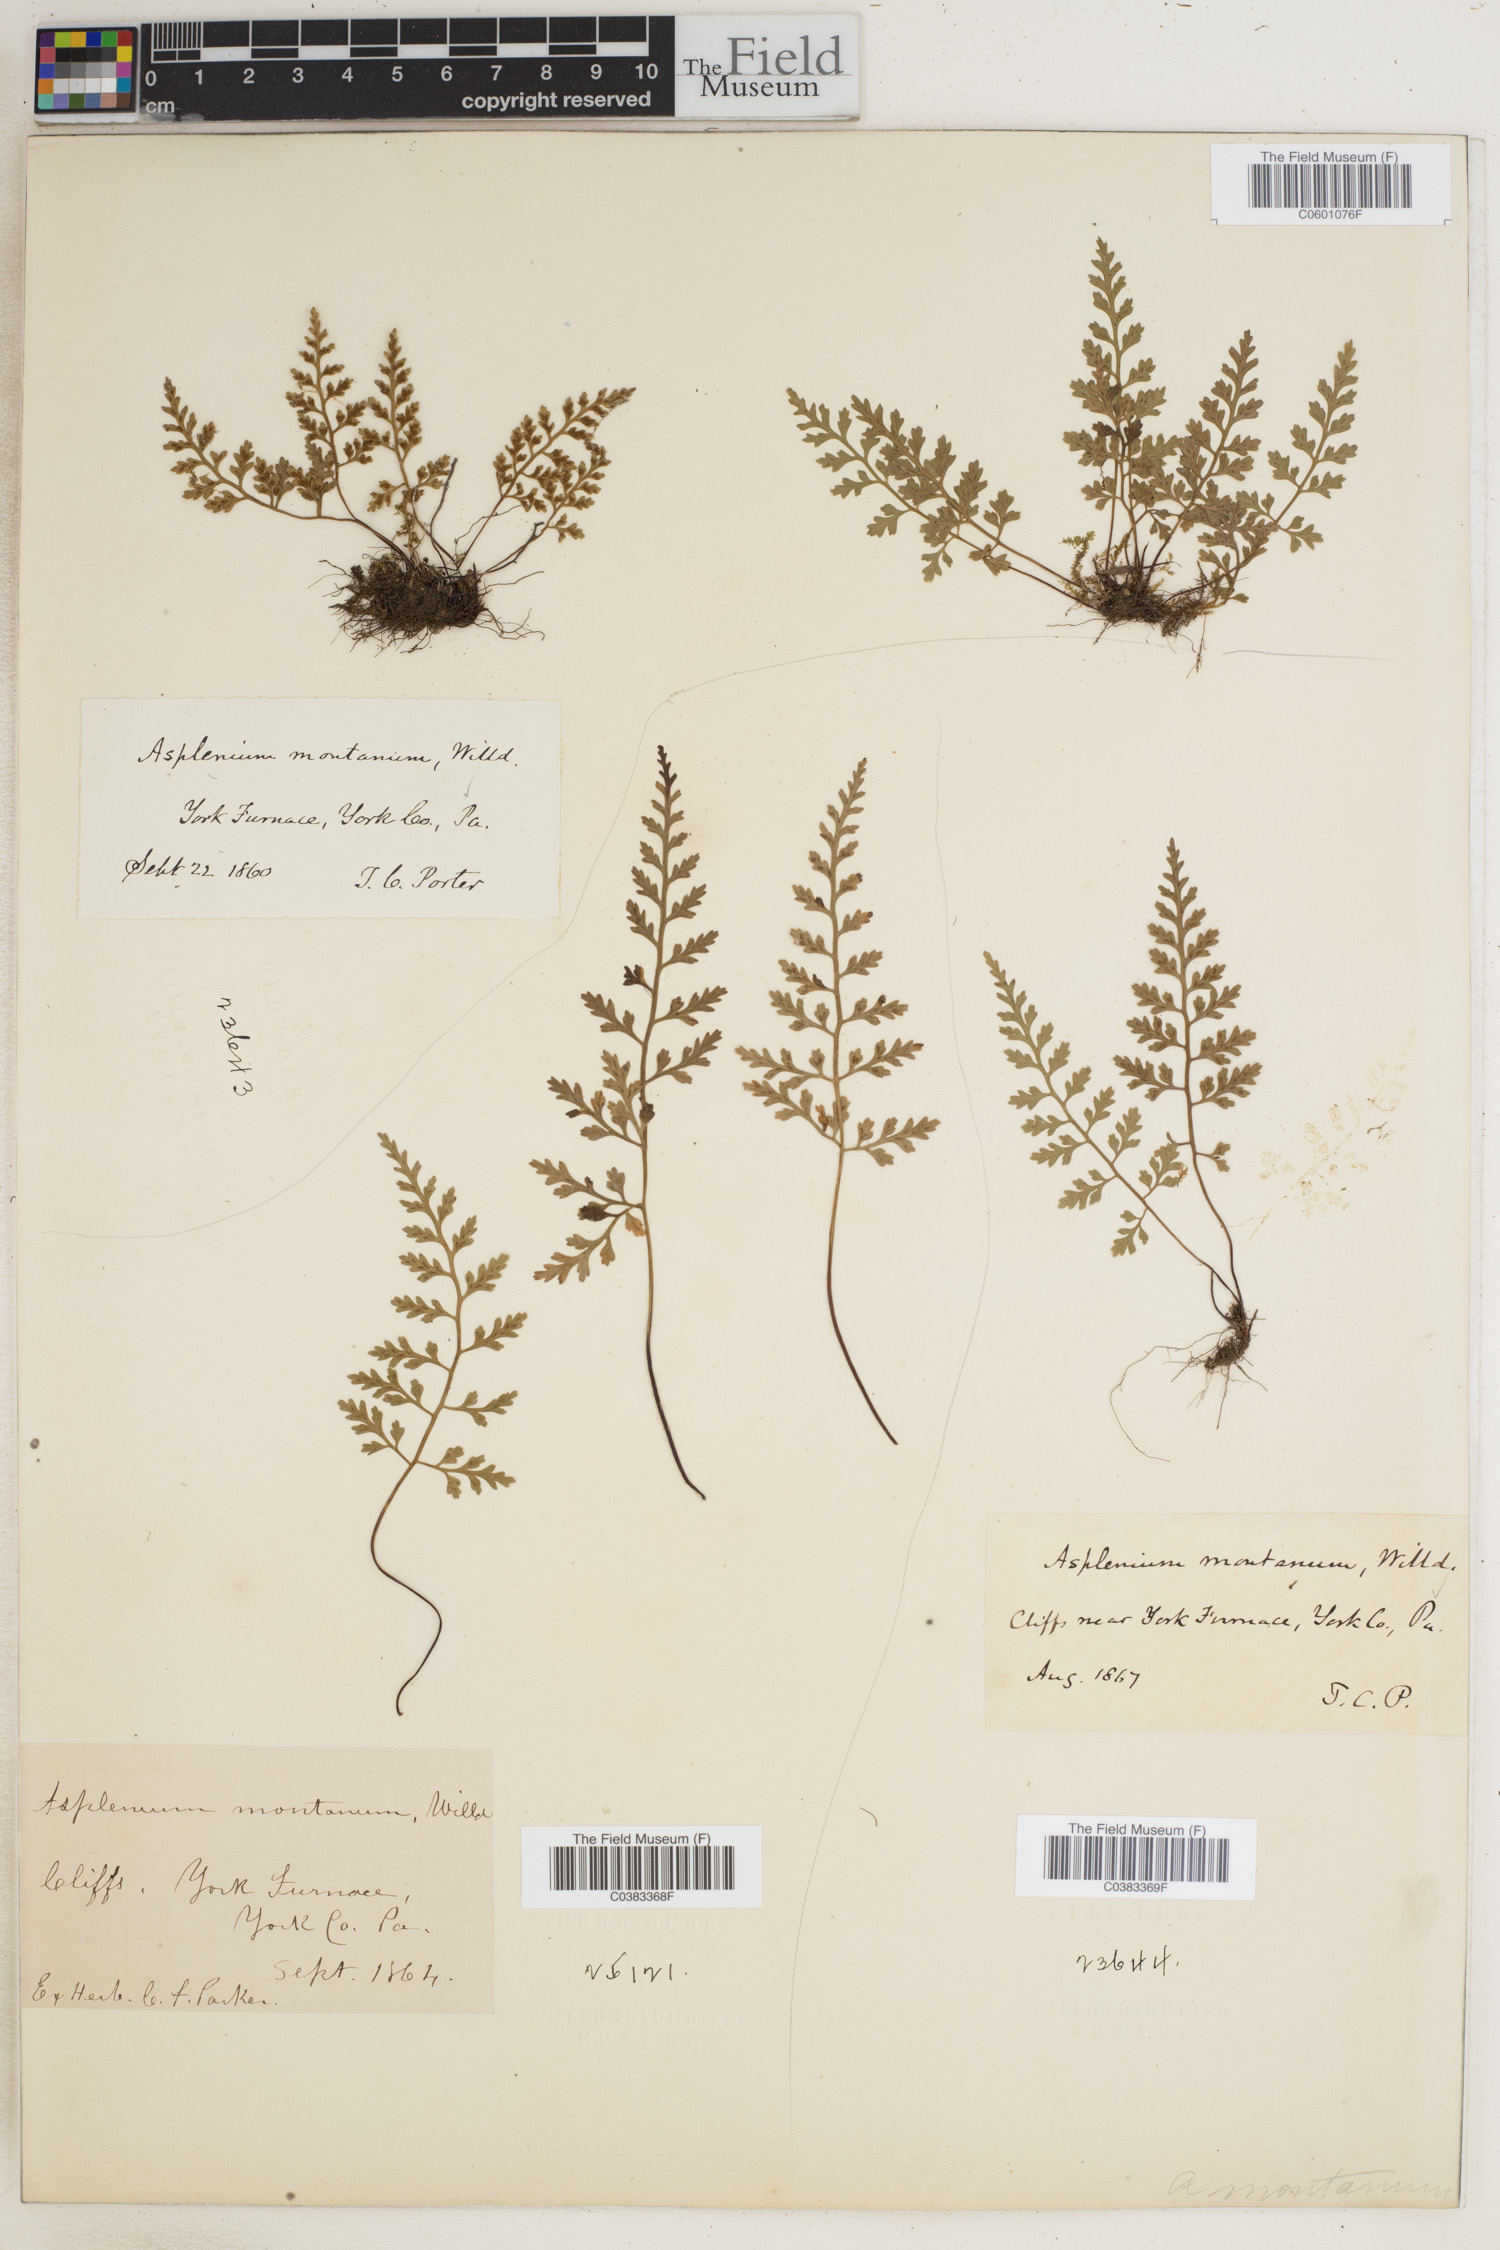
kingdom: Plantae
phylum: Tracheophyta
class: Polypodiopsida
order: Polypodiales
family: Aspleniaceae
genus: Asplenium
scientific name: Asplenium montanum
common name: Mountain spleenwort
